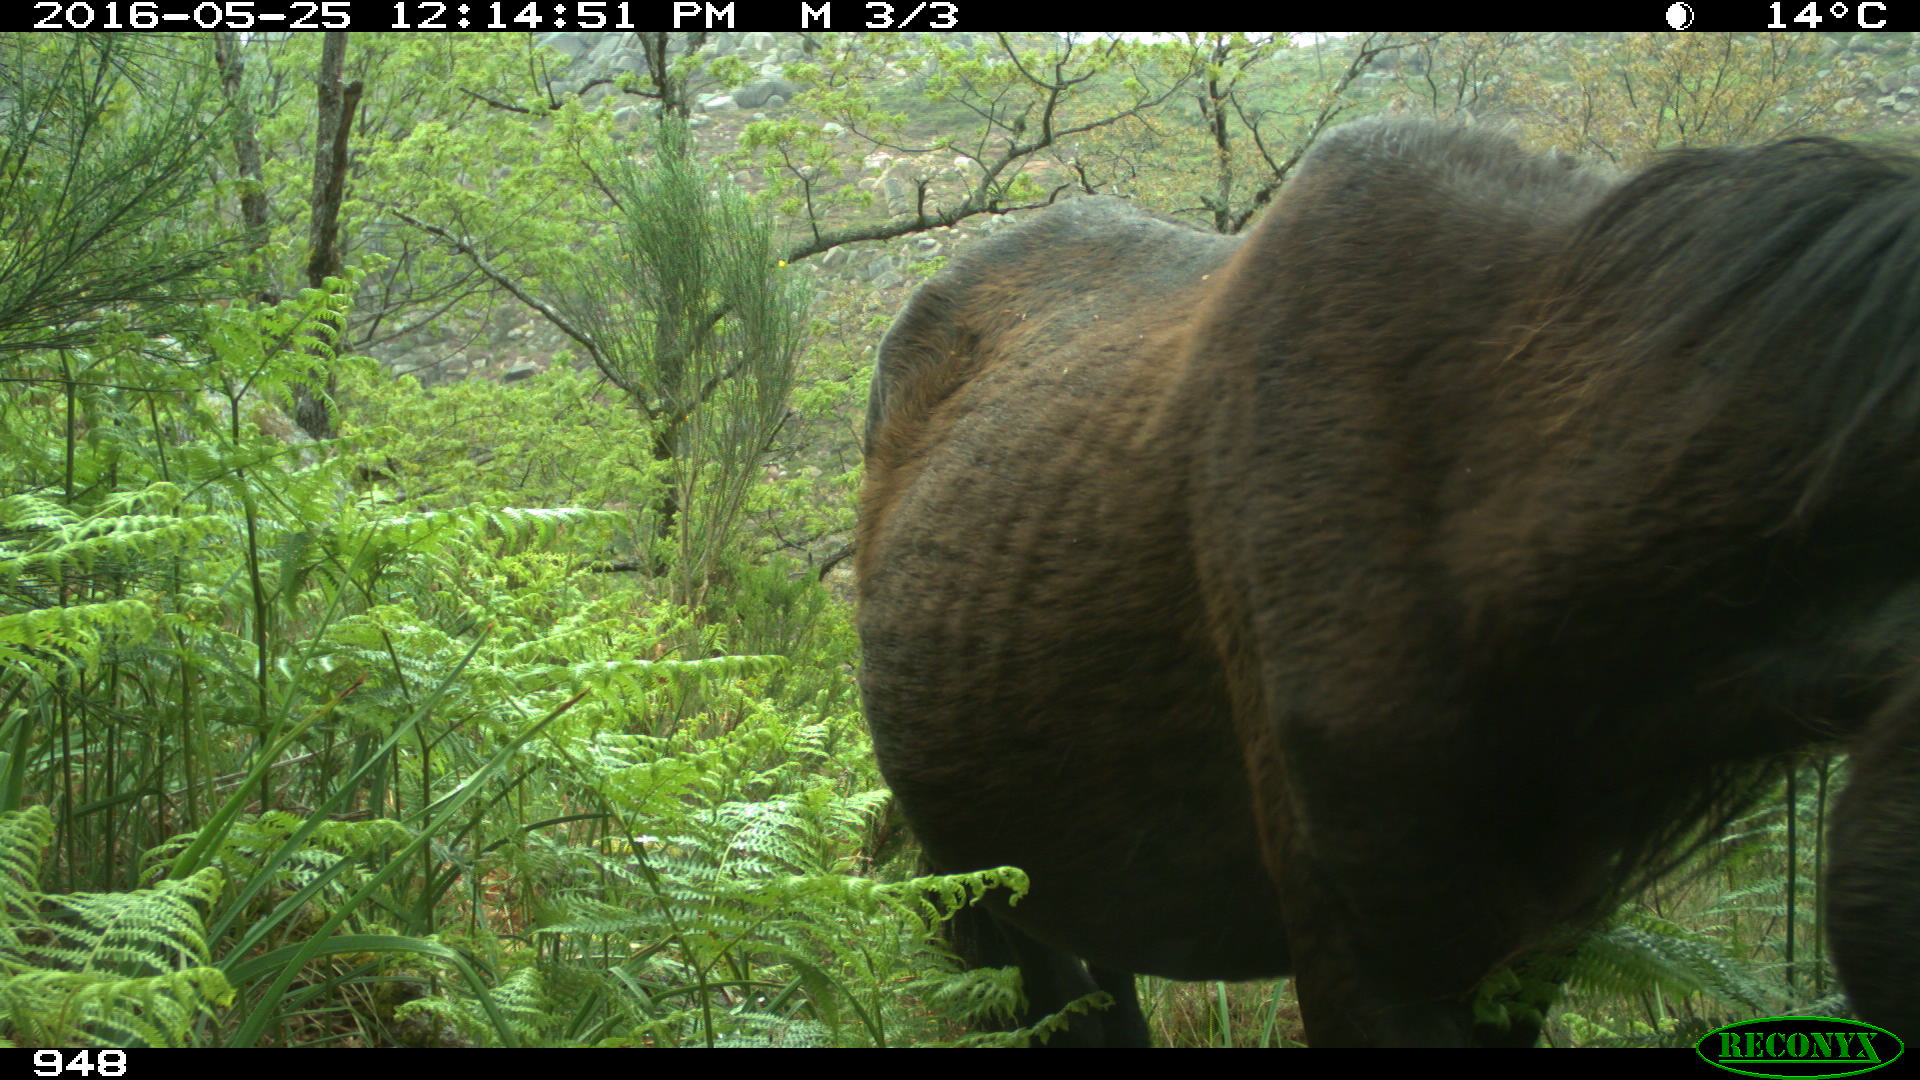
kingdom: Animalia
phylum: Chordata
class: Mammalia
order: Perissodactyla
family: Equidae
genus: Equus
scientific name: Equus caballus
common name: Horse
